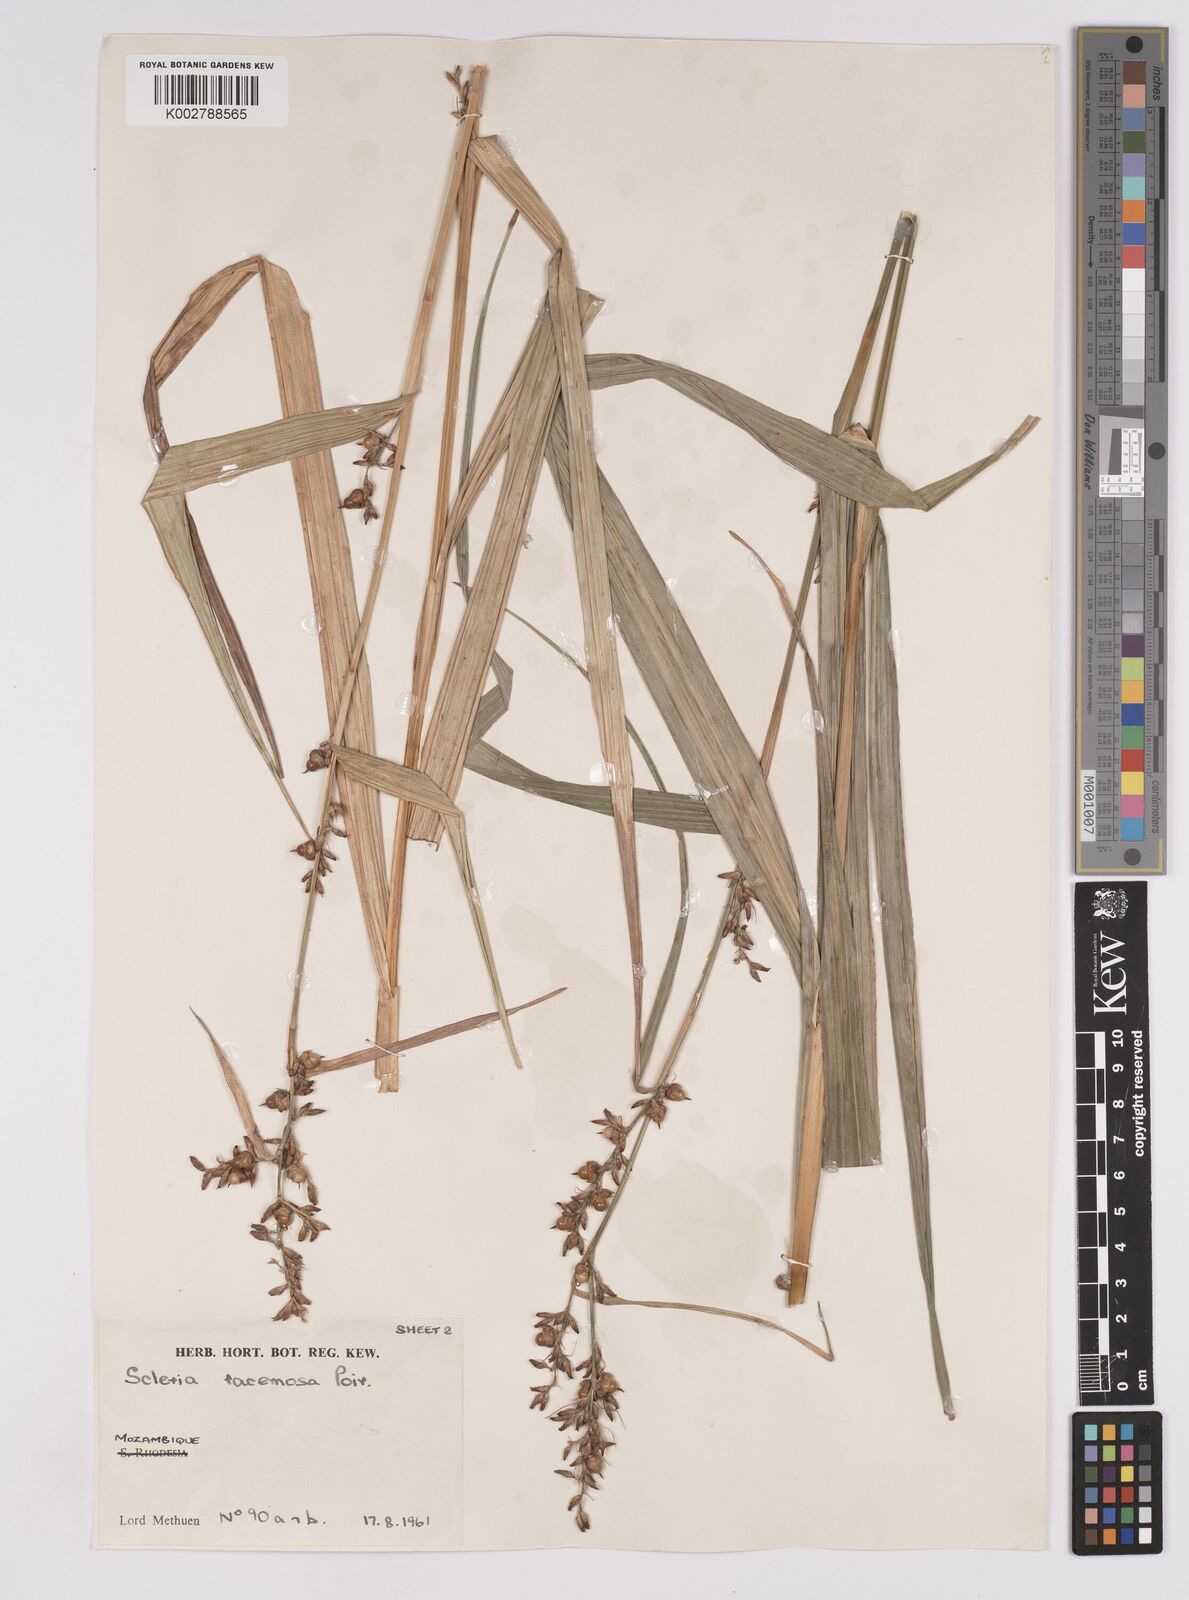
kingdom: Plantae
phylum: Tracheophyta
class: Liliopsida
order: Poales
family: Cyperaceae
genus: Scleria
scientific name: Scleria racemosa
